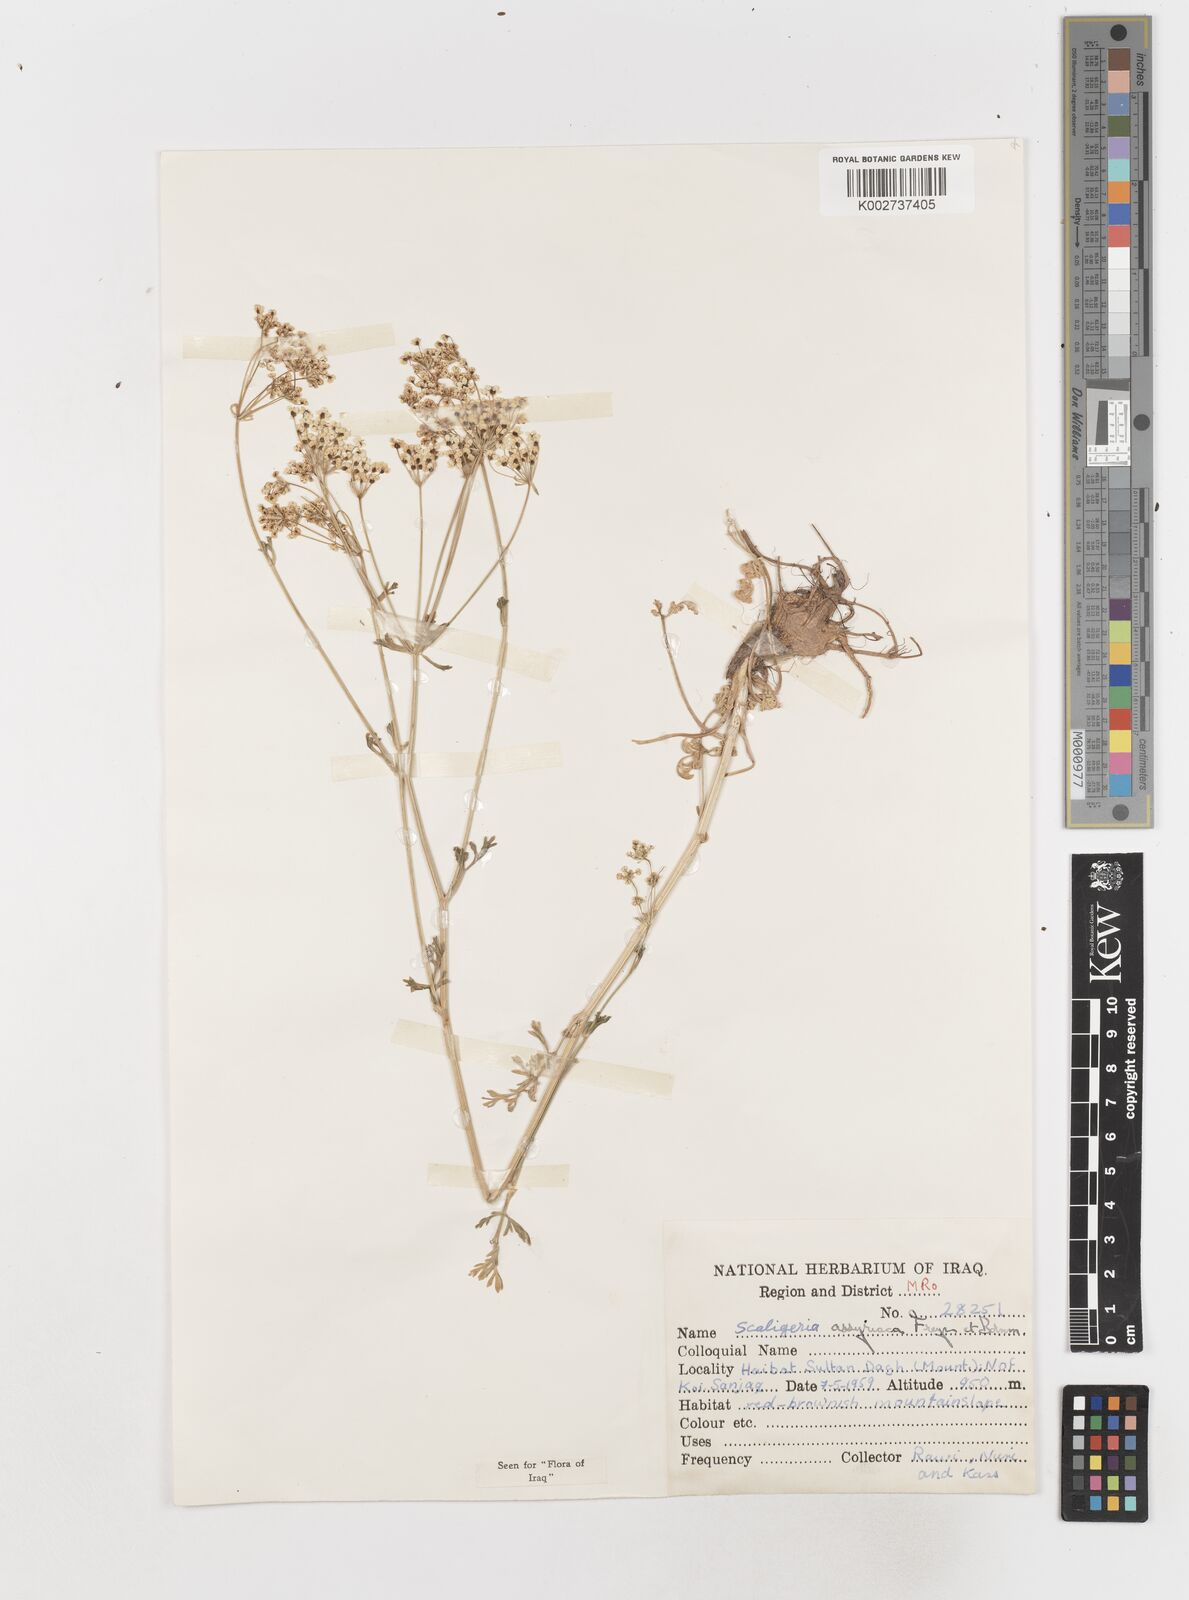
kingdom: Plantae
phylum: Tracheophyta
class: Magnoliopsida
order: Apiales
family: Apiaceae
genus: Korshinskia
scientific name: Korshinskia assyriaca
